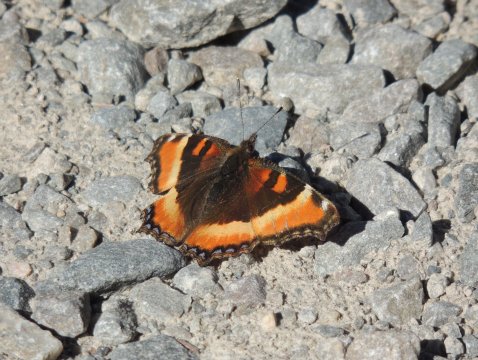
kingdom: Animalia
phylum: Arthropoda
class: Insecta
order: Lepidoptera
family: Nymphalidae
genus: Aglais
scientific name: Aglais milberti
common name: Milbert's Tortoiseshell
